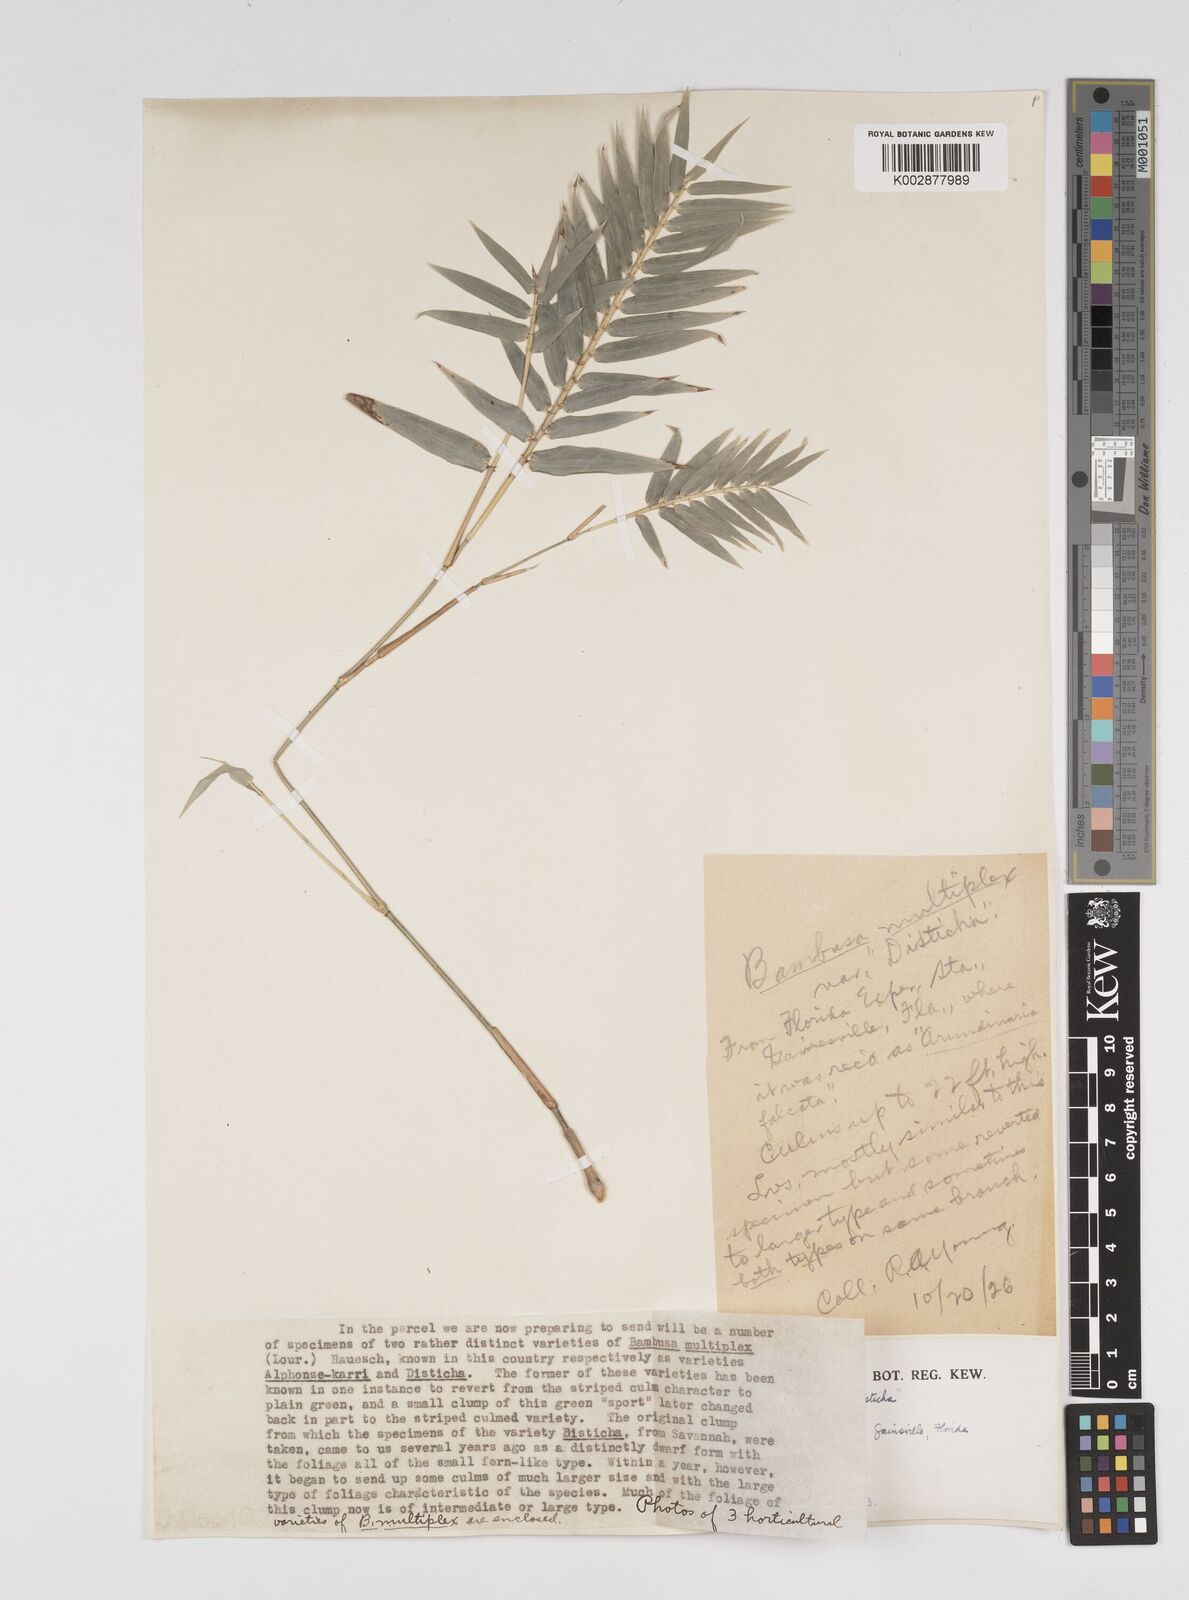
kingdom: Plantae
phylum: Tracheophyta
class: Liliopsida
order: Poales
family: Poaceae
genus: Bambusa
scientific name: Bambusa
